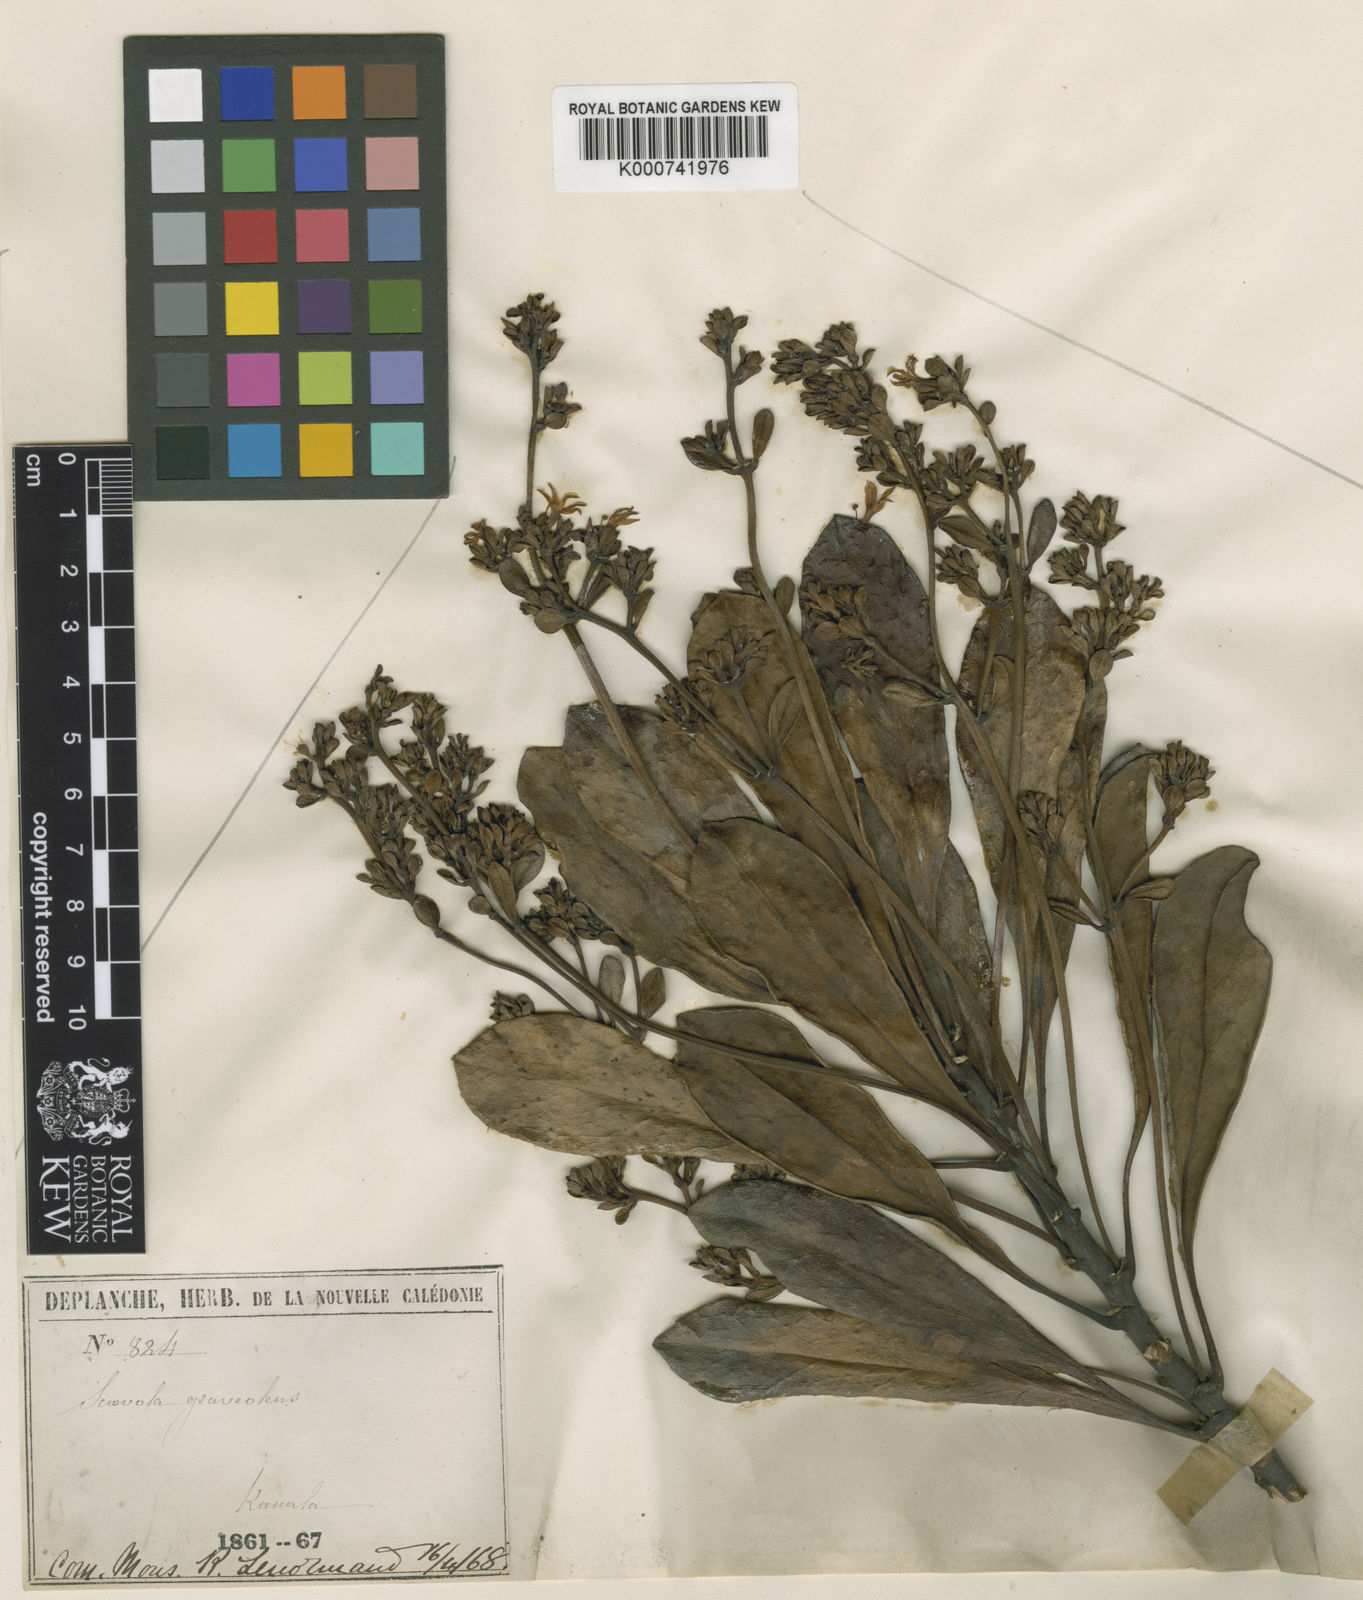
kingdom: Plantae
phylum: Tracheophyta
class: Magnoliopsida
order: Asterales
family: Goodeniaceae
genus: Scaevola
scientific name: Scaevola calendulacea
